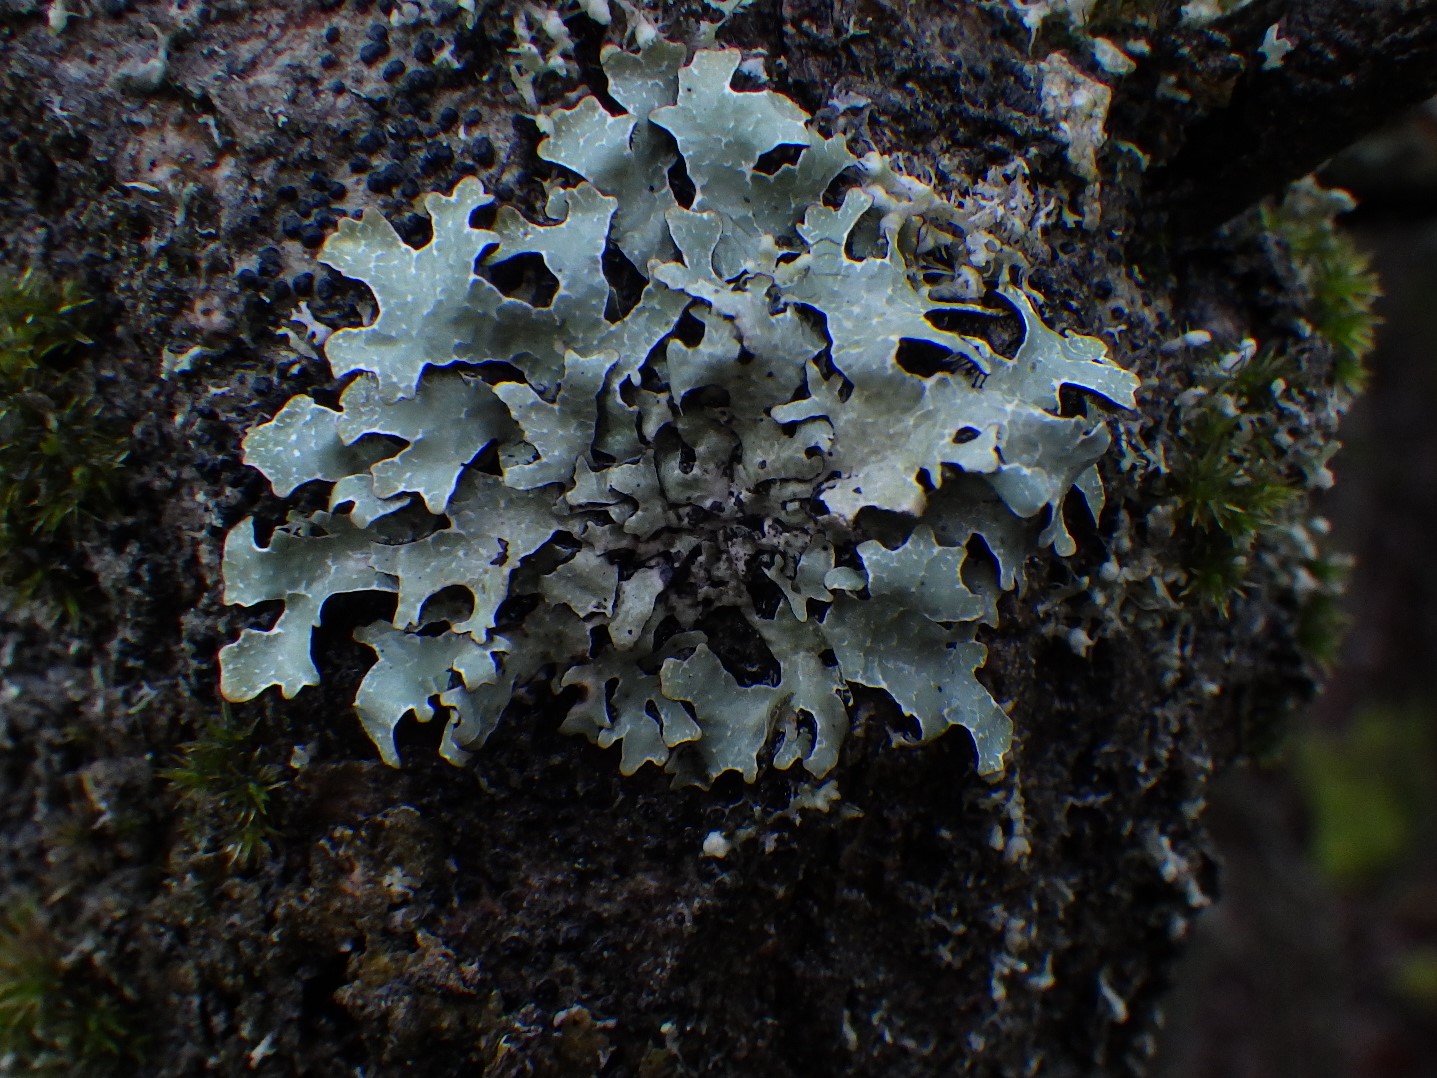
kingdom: Fungi
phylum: Ascomycota
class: Lecanoromycetes
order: Lecanorales
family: Parmeliaceae
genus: Parmelia
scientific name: Parmelia sulcata
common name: rynket skållav
